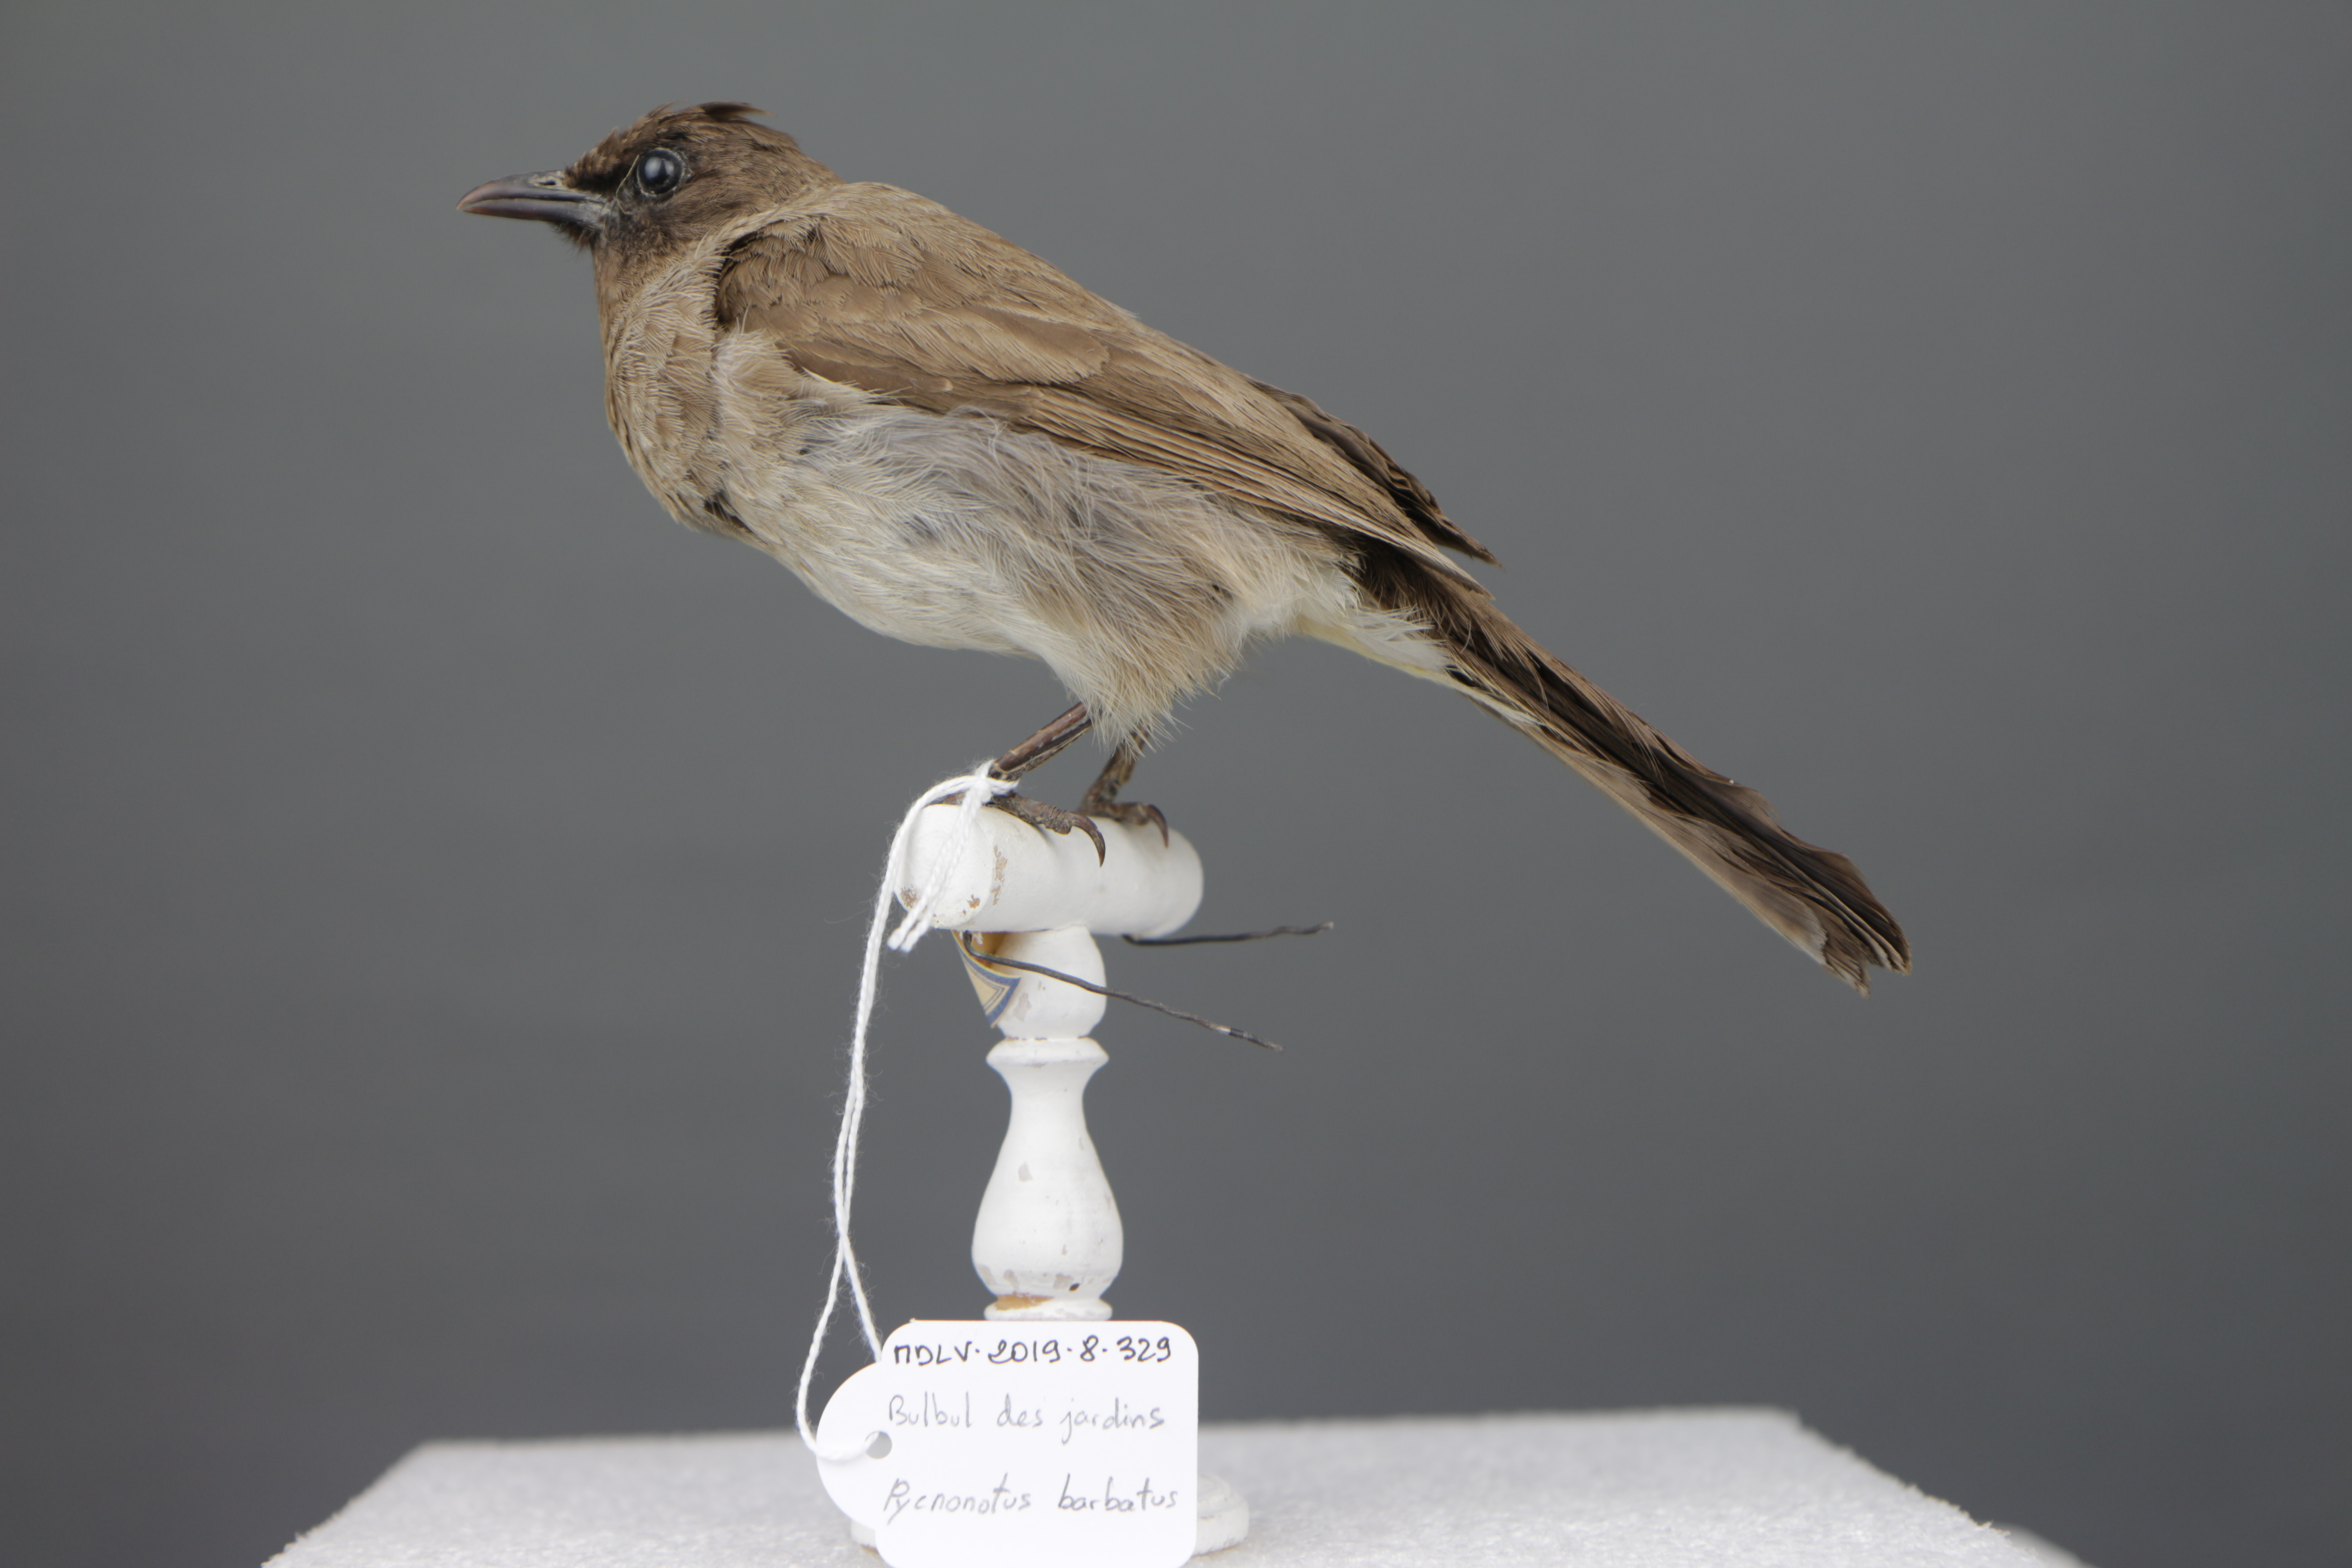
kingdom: Animalia
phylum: Chordata
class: Aves
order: Passeriformes
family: Pycnonotidae
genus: Pycnonotus
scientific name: Pycnonotus barbatus
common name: Common bulbul
